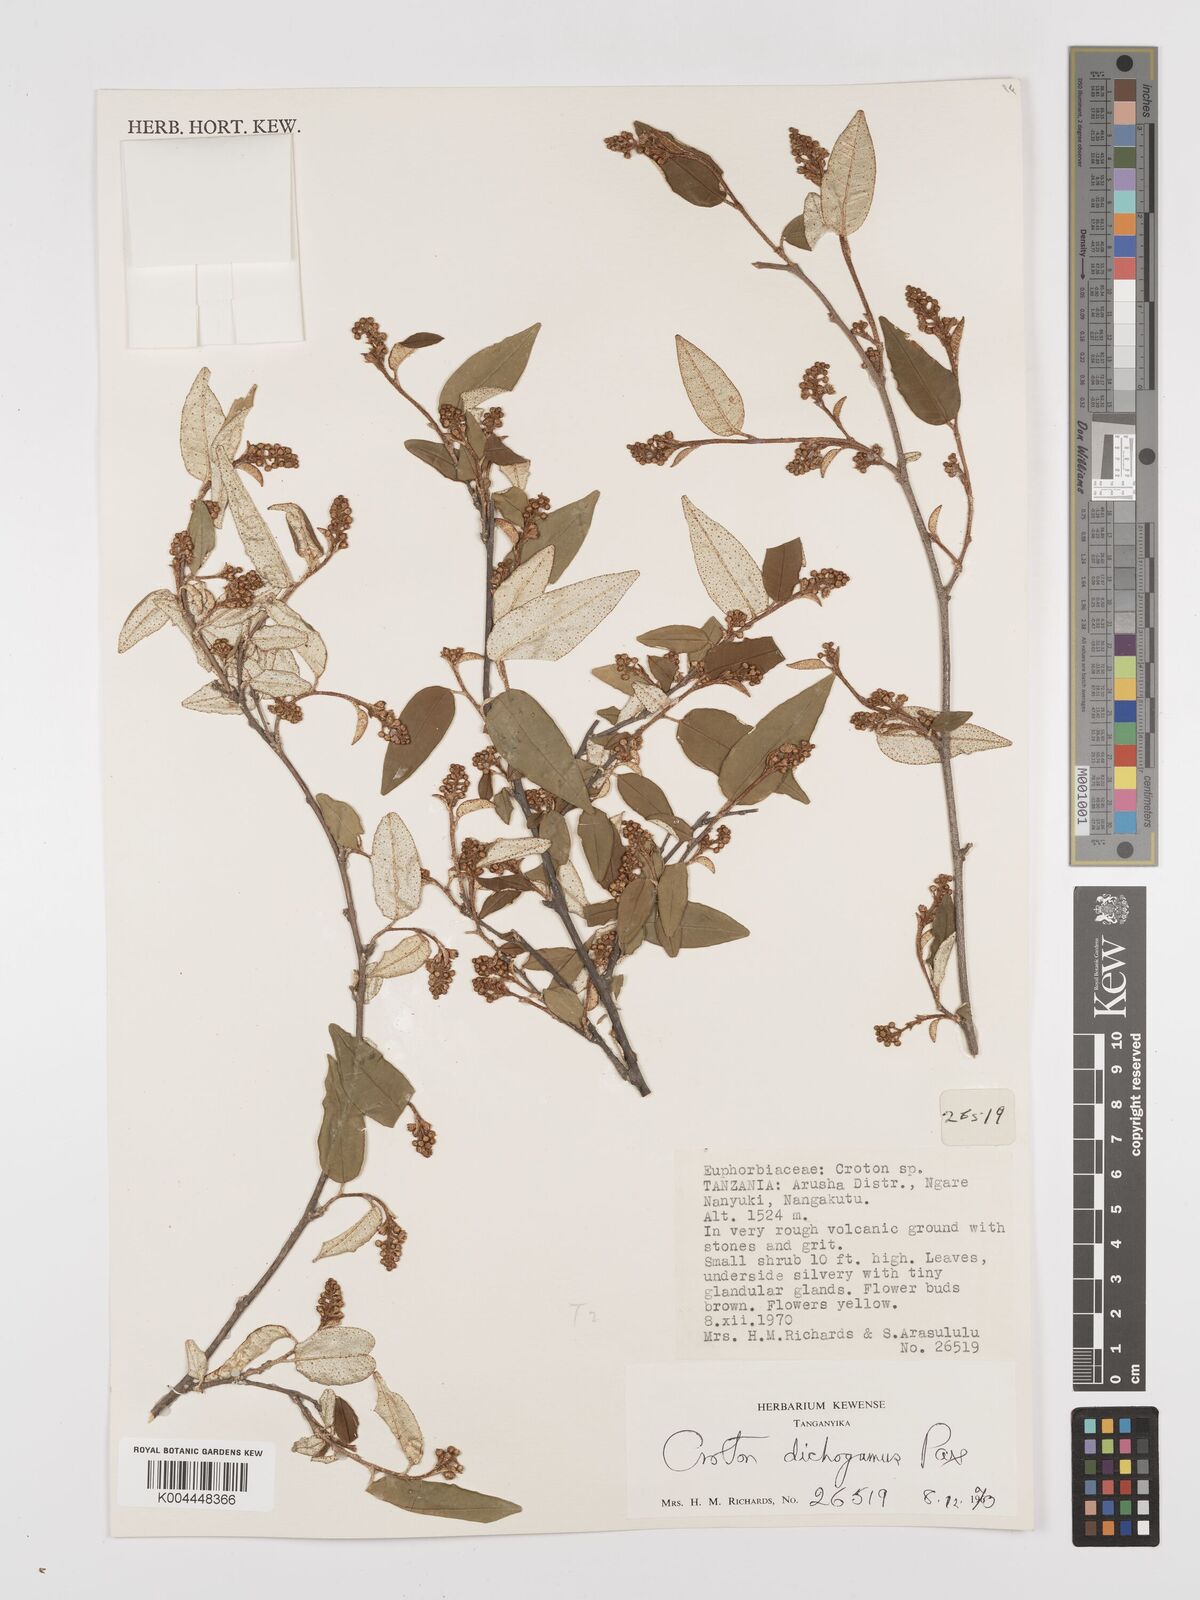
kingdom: Plantae
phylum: Tracheophyta
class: Magnoliopsida
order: Malpighiales
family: Euphorbiaceae
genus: Croton
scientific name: Croton dichogamus
